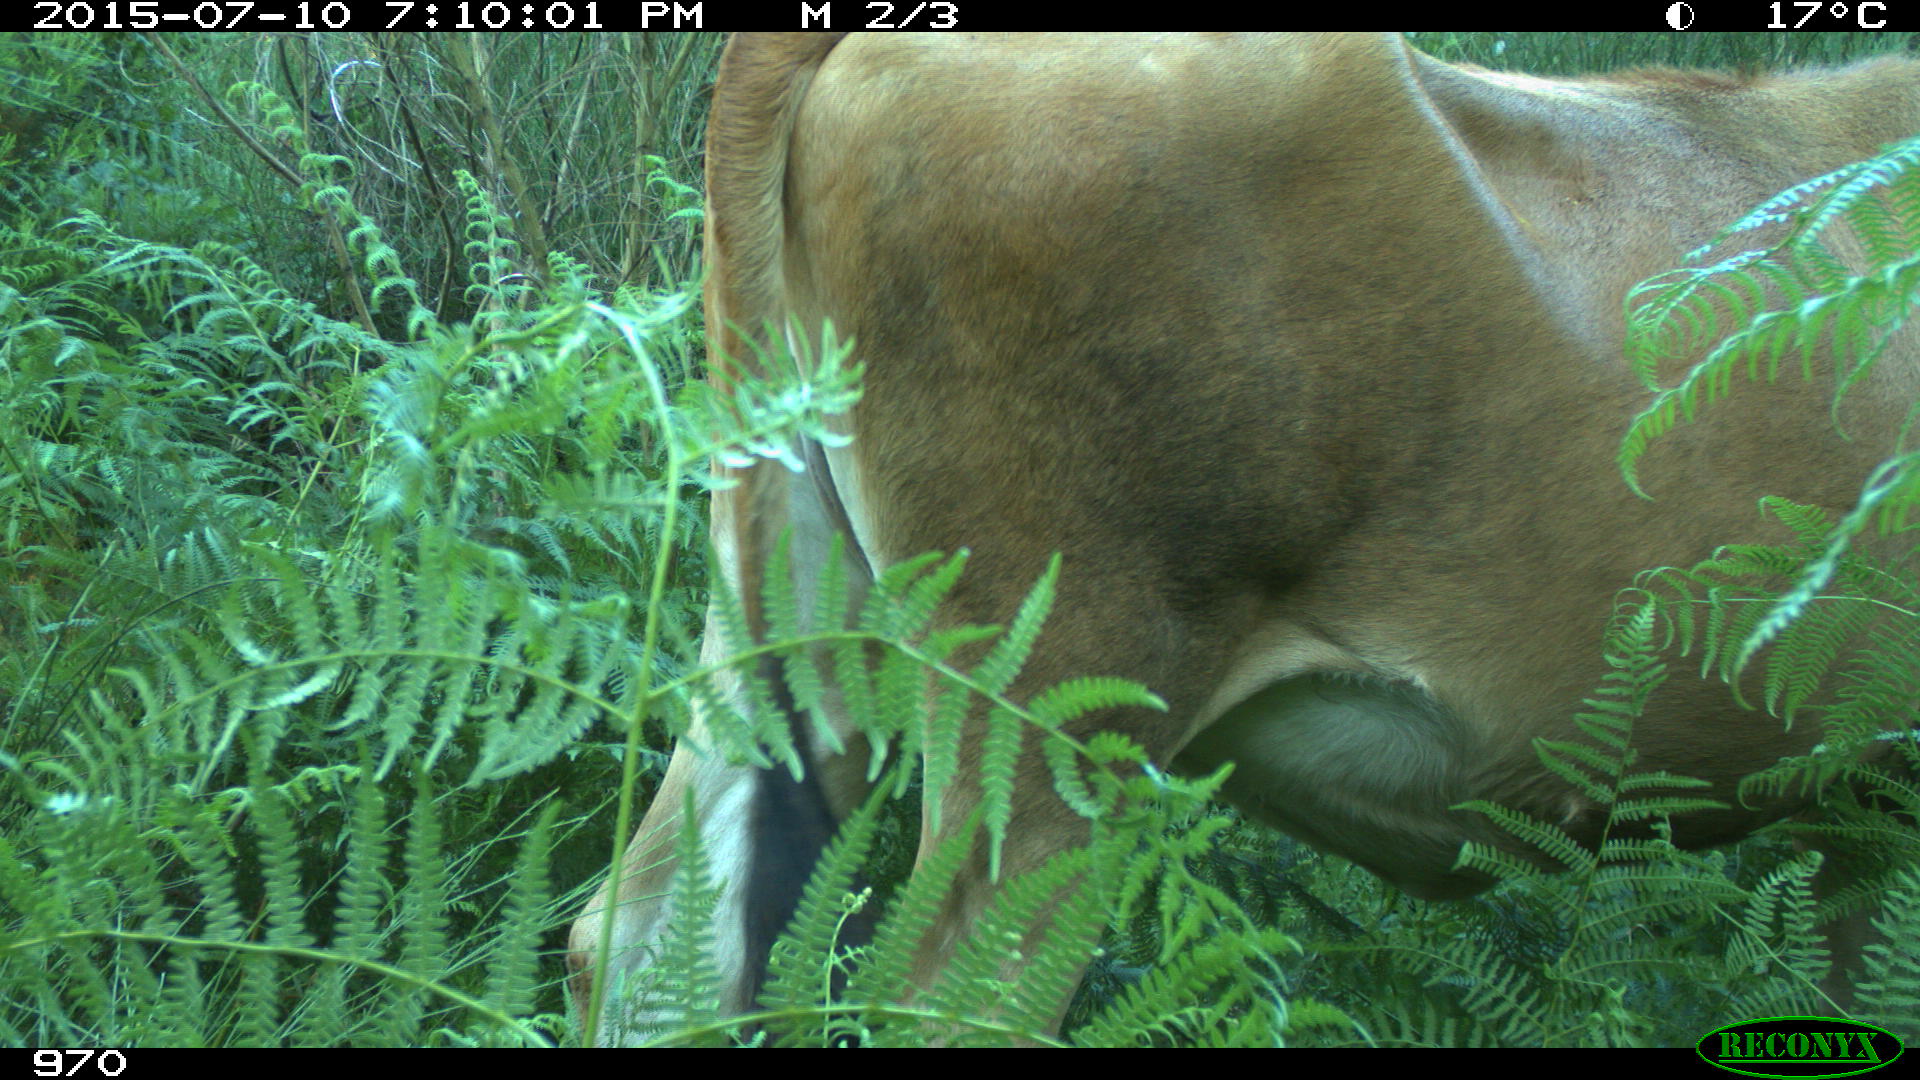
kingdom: Animalia
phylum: Chordata
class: Mammalia
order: Artiodactyla
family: Bovidae
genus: Bos
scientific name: Bos taurus
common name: Domesticated cattle
